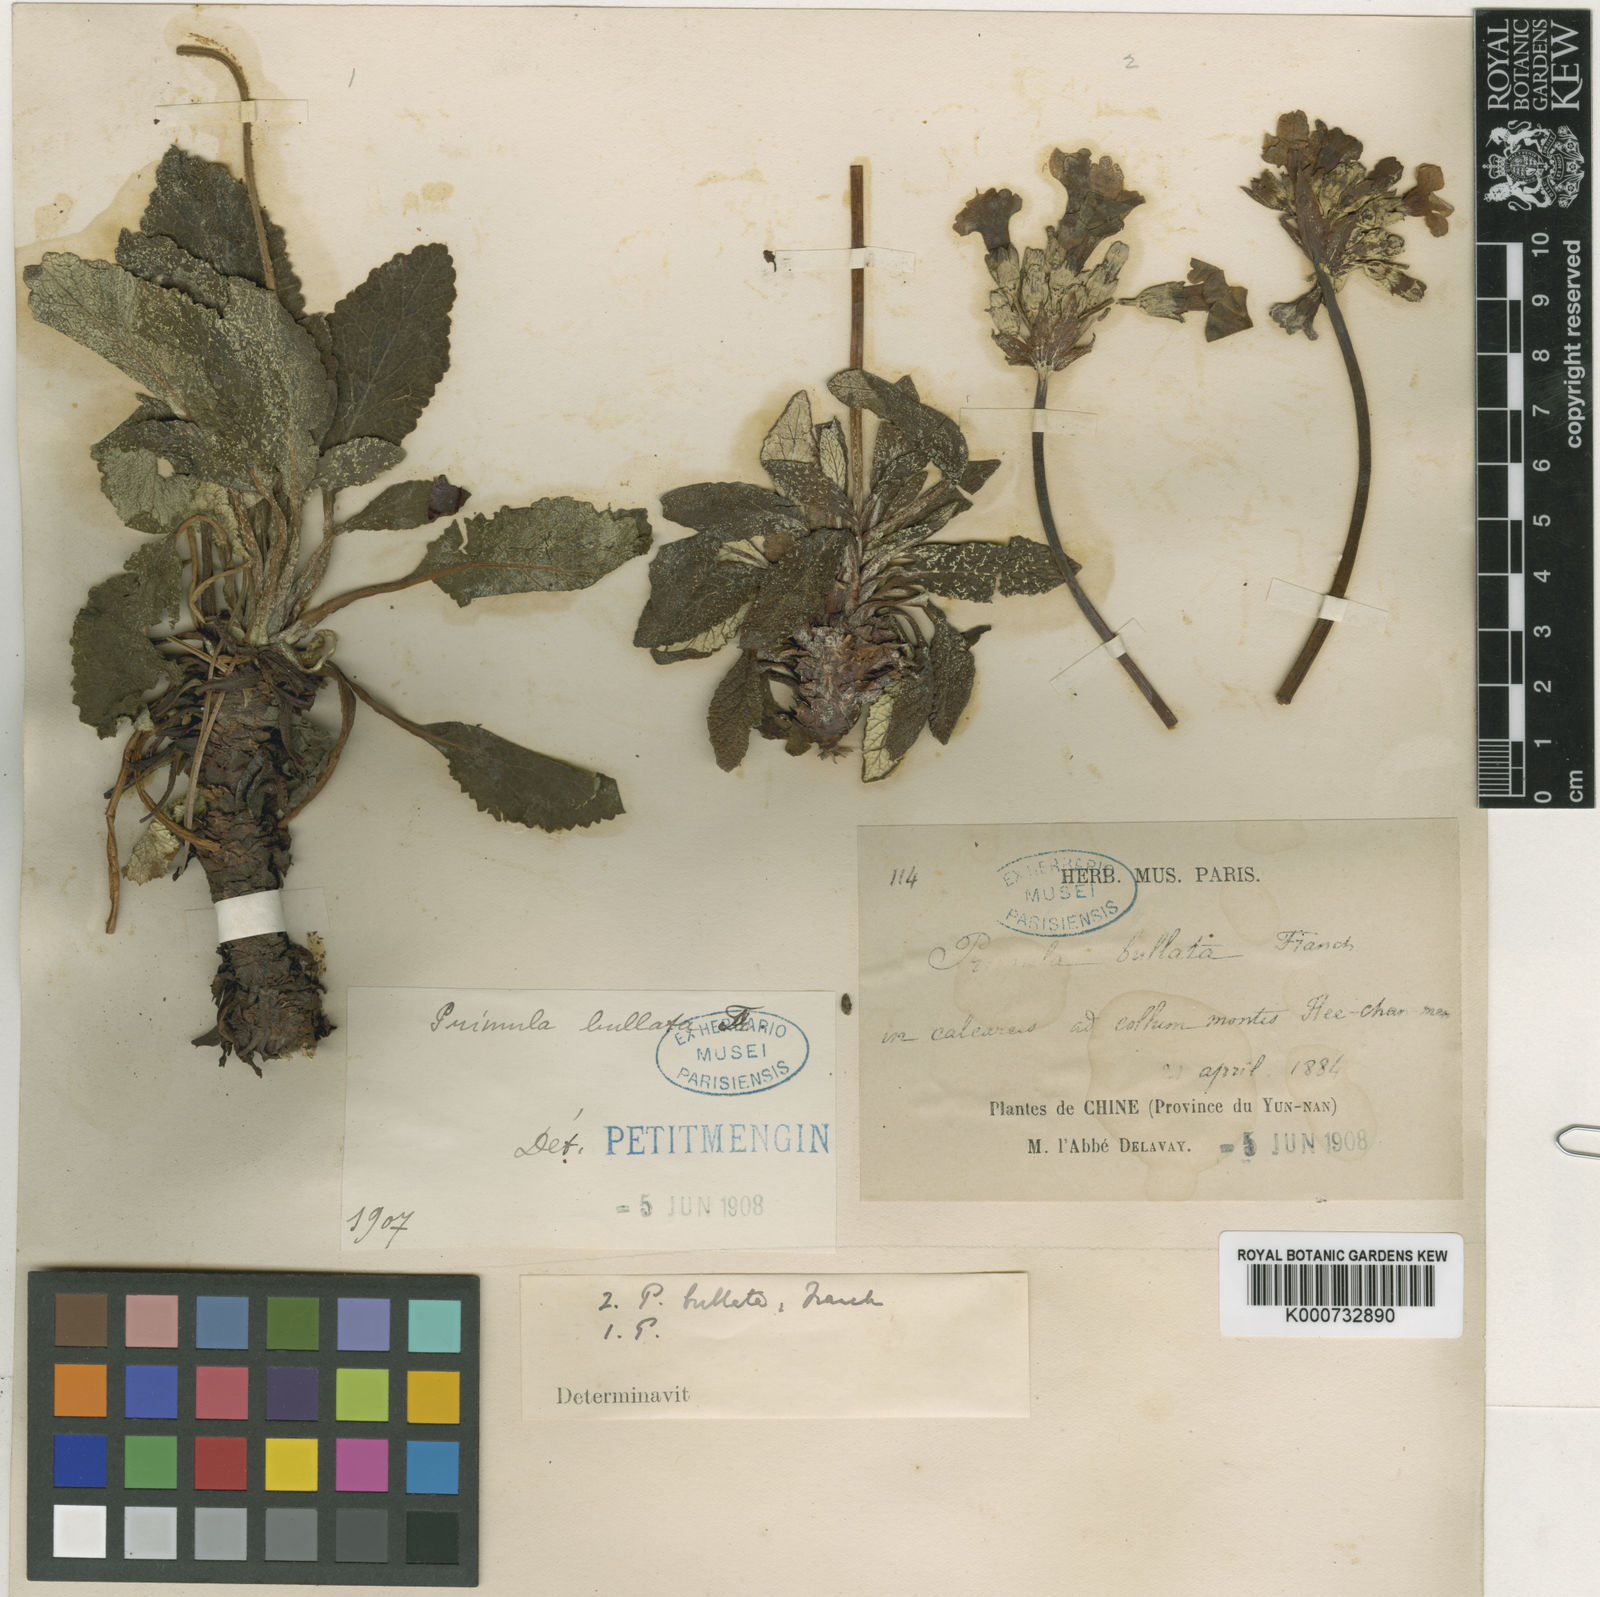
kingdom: Plantae
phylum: Tracheophyta
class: Magnoliopsida
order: Ericales
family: Primulaceae
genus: Primula
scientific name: Primula bullata
